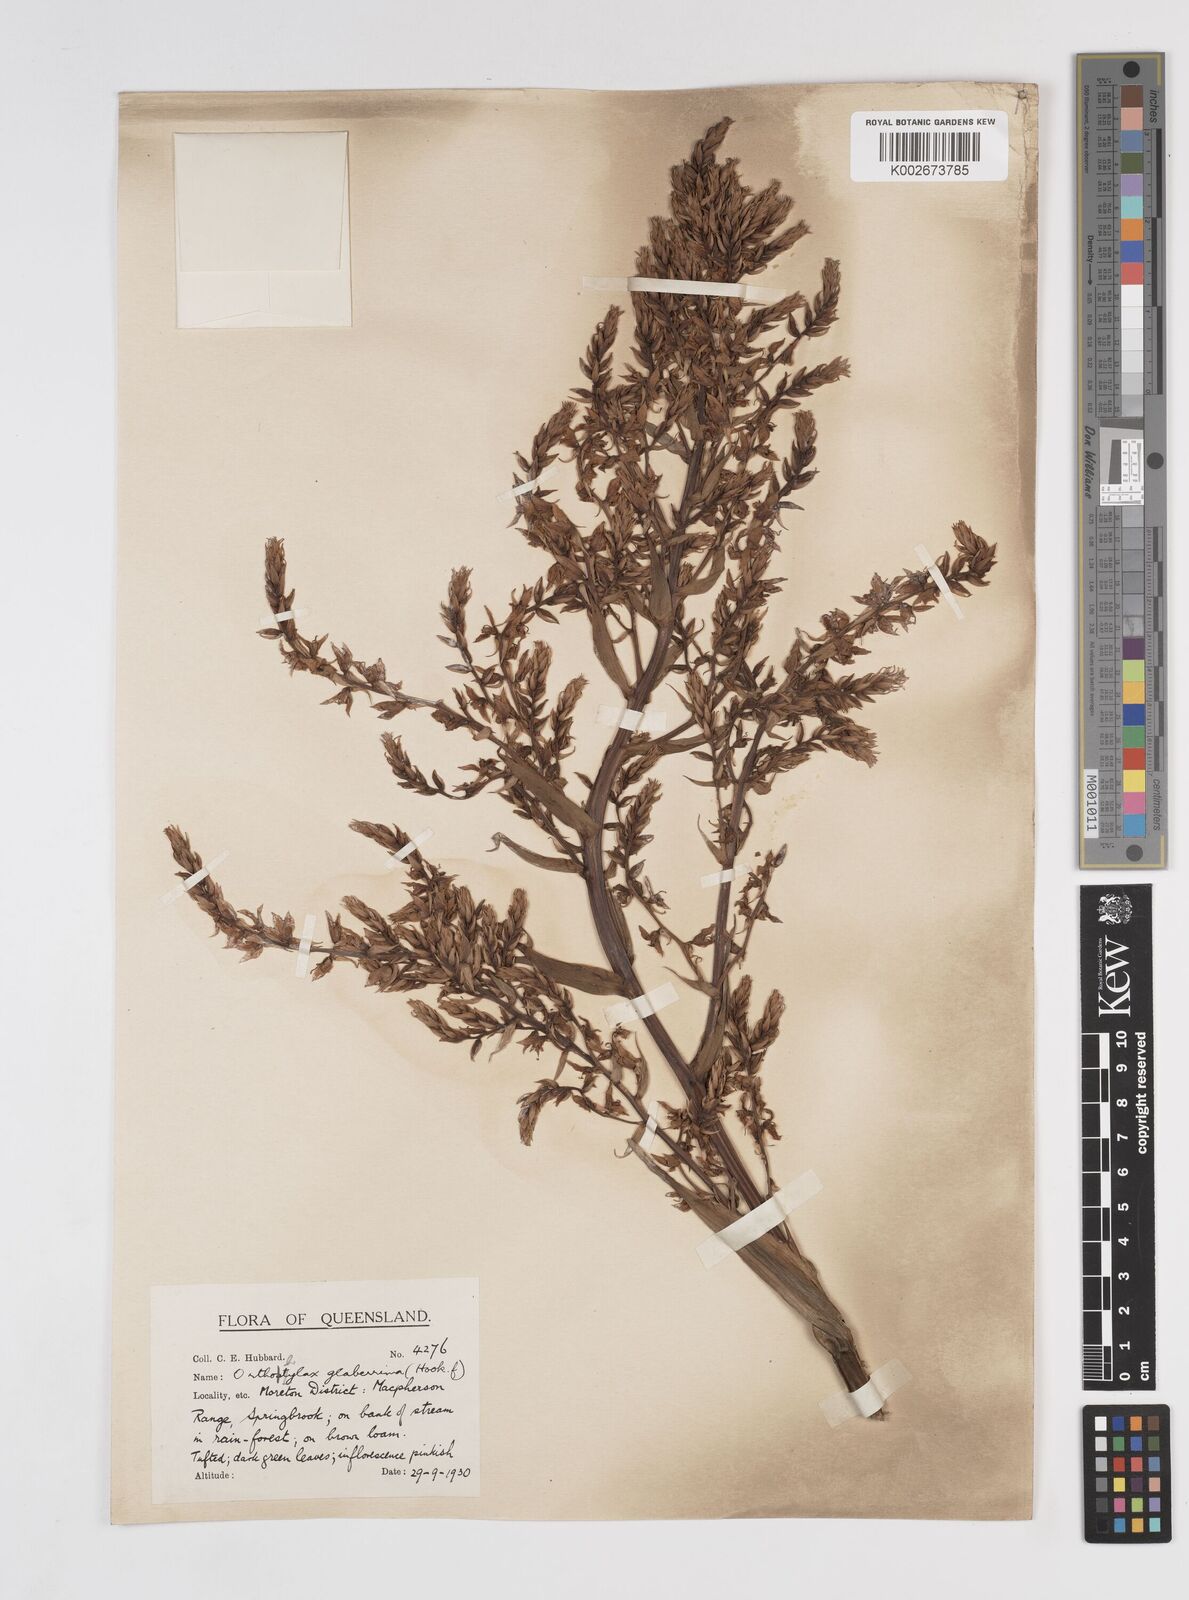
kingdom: Plantae
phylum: Tracheophyta
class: Liliopsida
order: Commelinales
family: Philydraceae
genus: Helmholtzia
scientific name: Helmholtzia glaberrima
